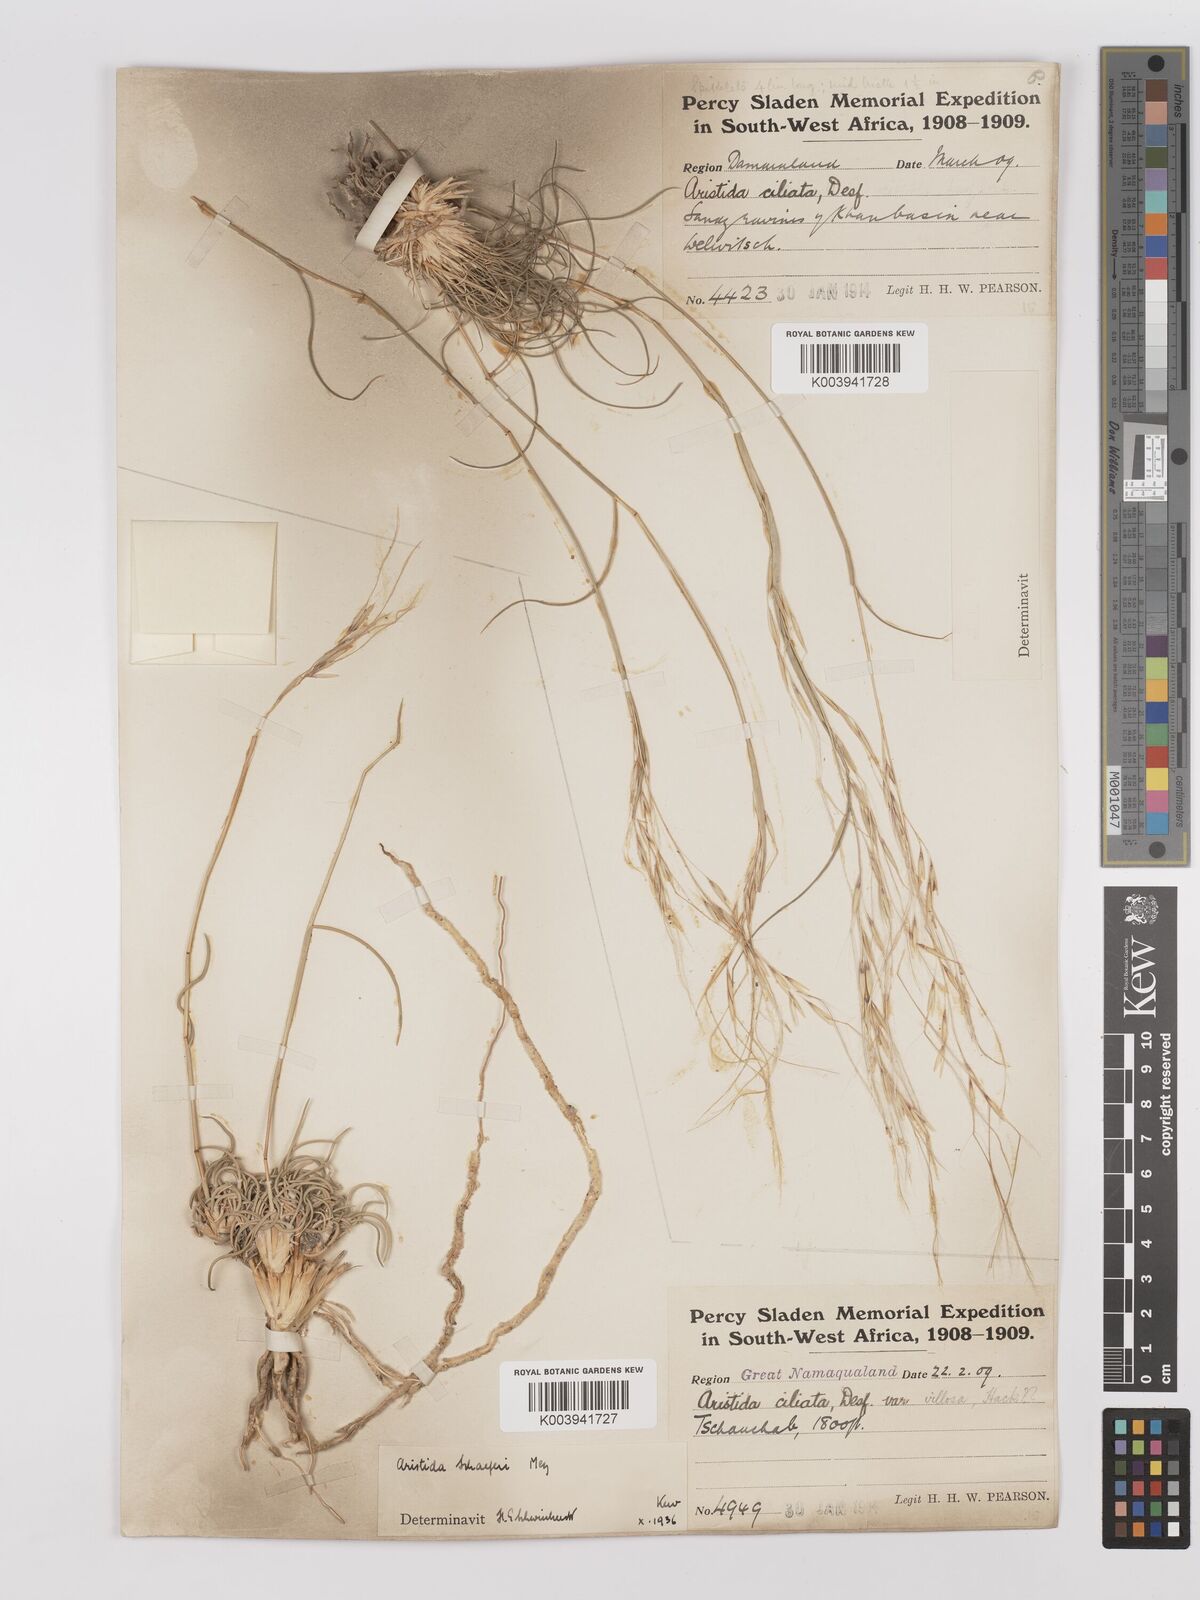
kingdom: Plantae
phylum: Tracheophyta
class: Liliopsida
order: Poales
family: Poaceae
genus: Stipagrostis
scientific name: Stipagrostis schaeferi
